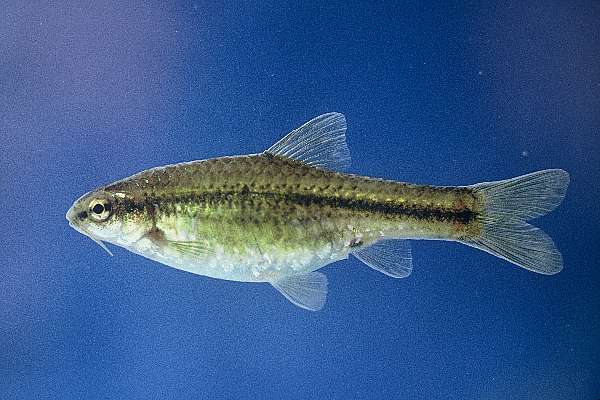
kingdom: Animalia
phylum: Chordata
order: Cypriniformes
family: Cyprinidae
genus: Barbus
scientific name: Barbus
